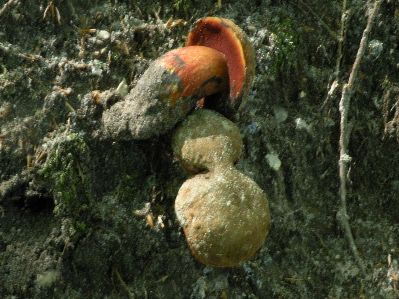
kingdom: Fungi
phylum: Basidiomycota
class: Agaricomycetes
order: Boletales
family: Boletaceae
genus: Neoboletus
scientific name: Neoboletus erythropus
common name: punktstokket indigorørhat
